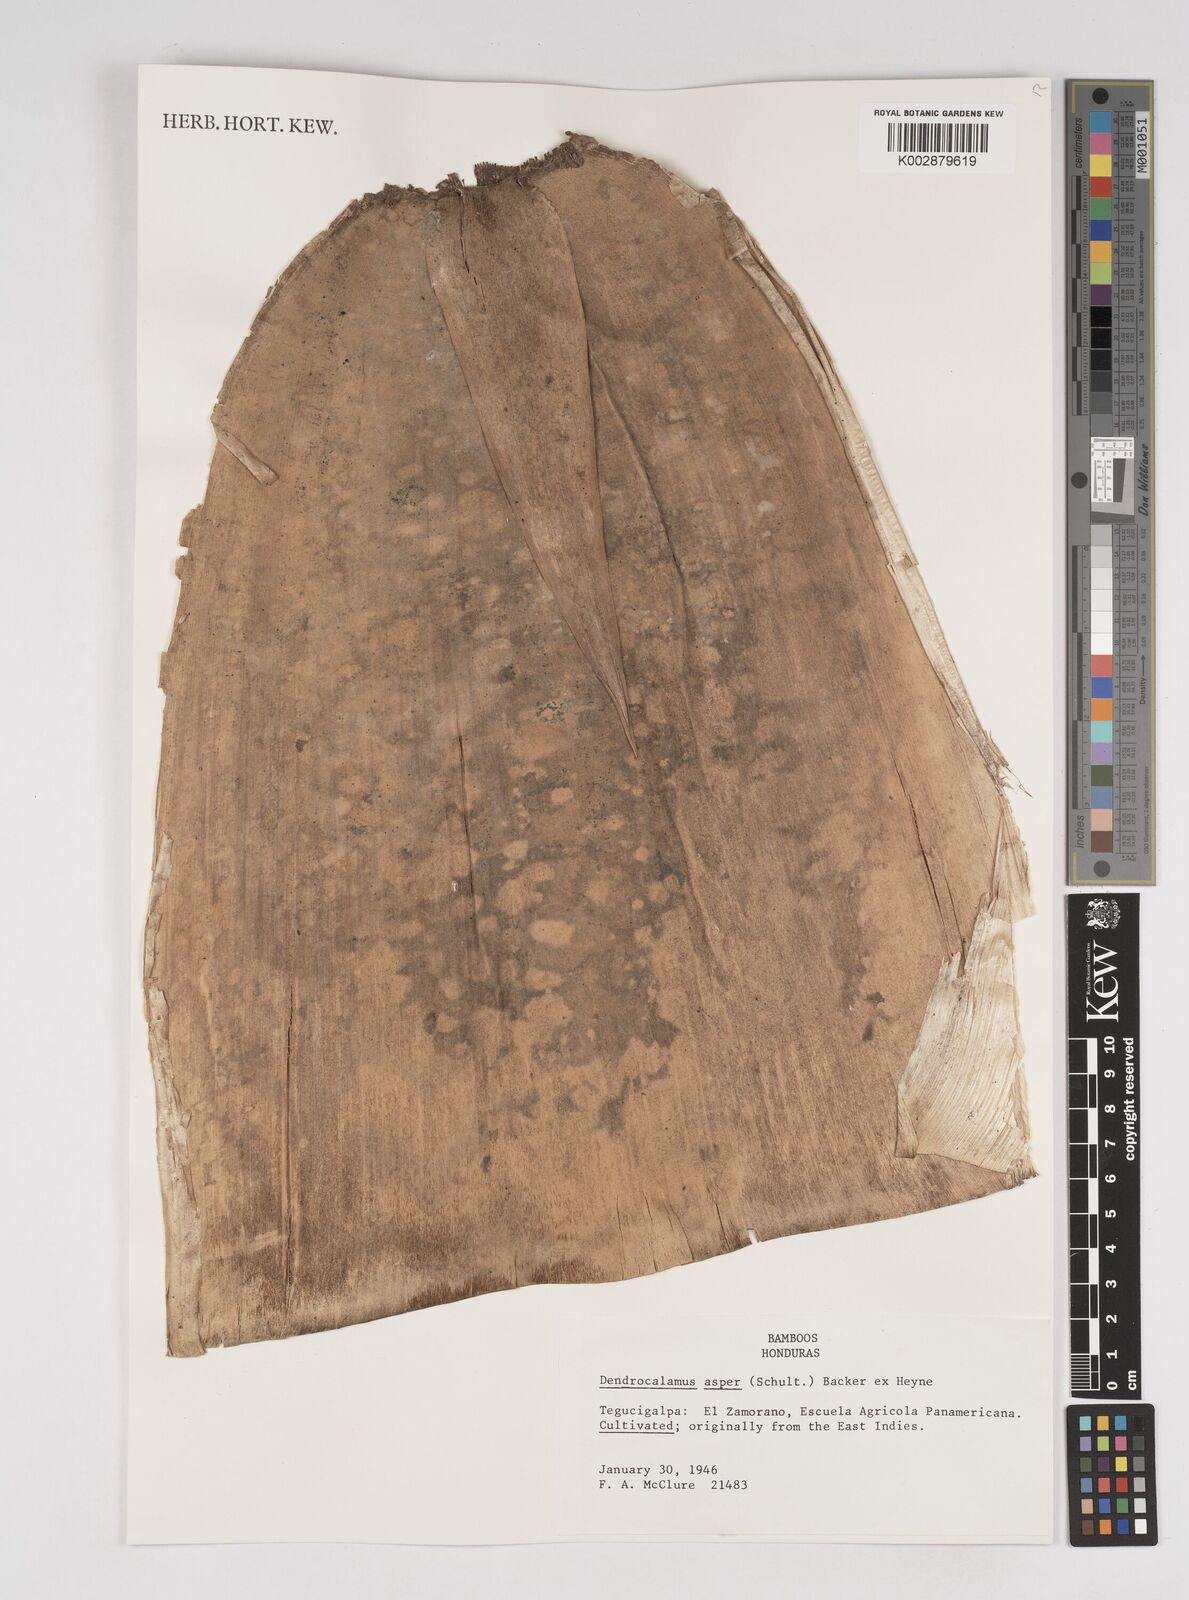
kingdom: Plantae
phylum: Tracheophyta
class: Liliopsida
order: Poales
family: Poaceae
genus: Dendrocalamus
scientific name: Dendrocalamus asper
